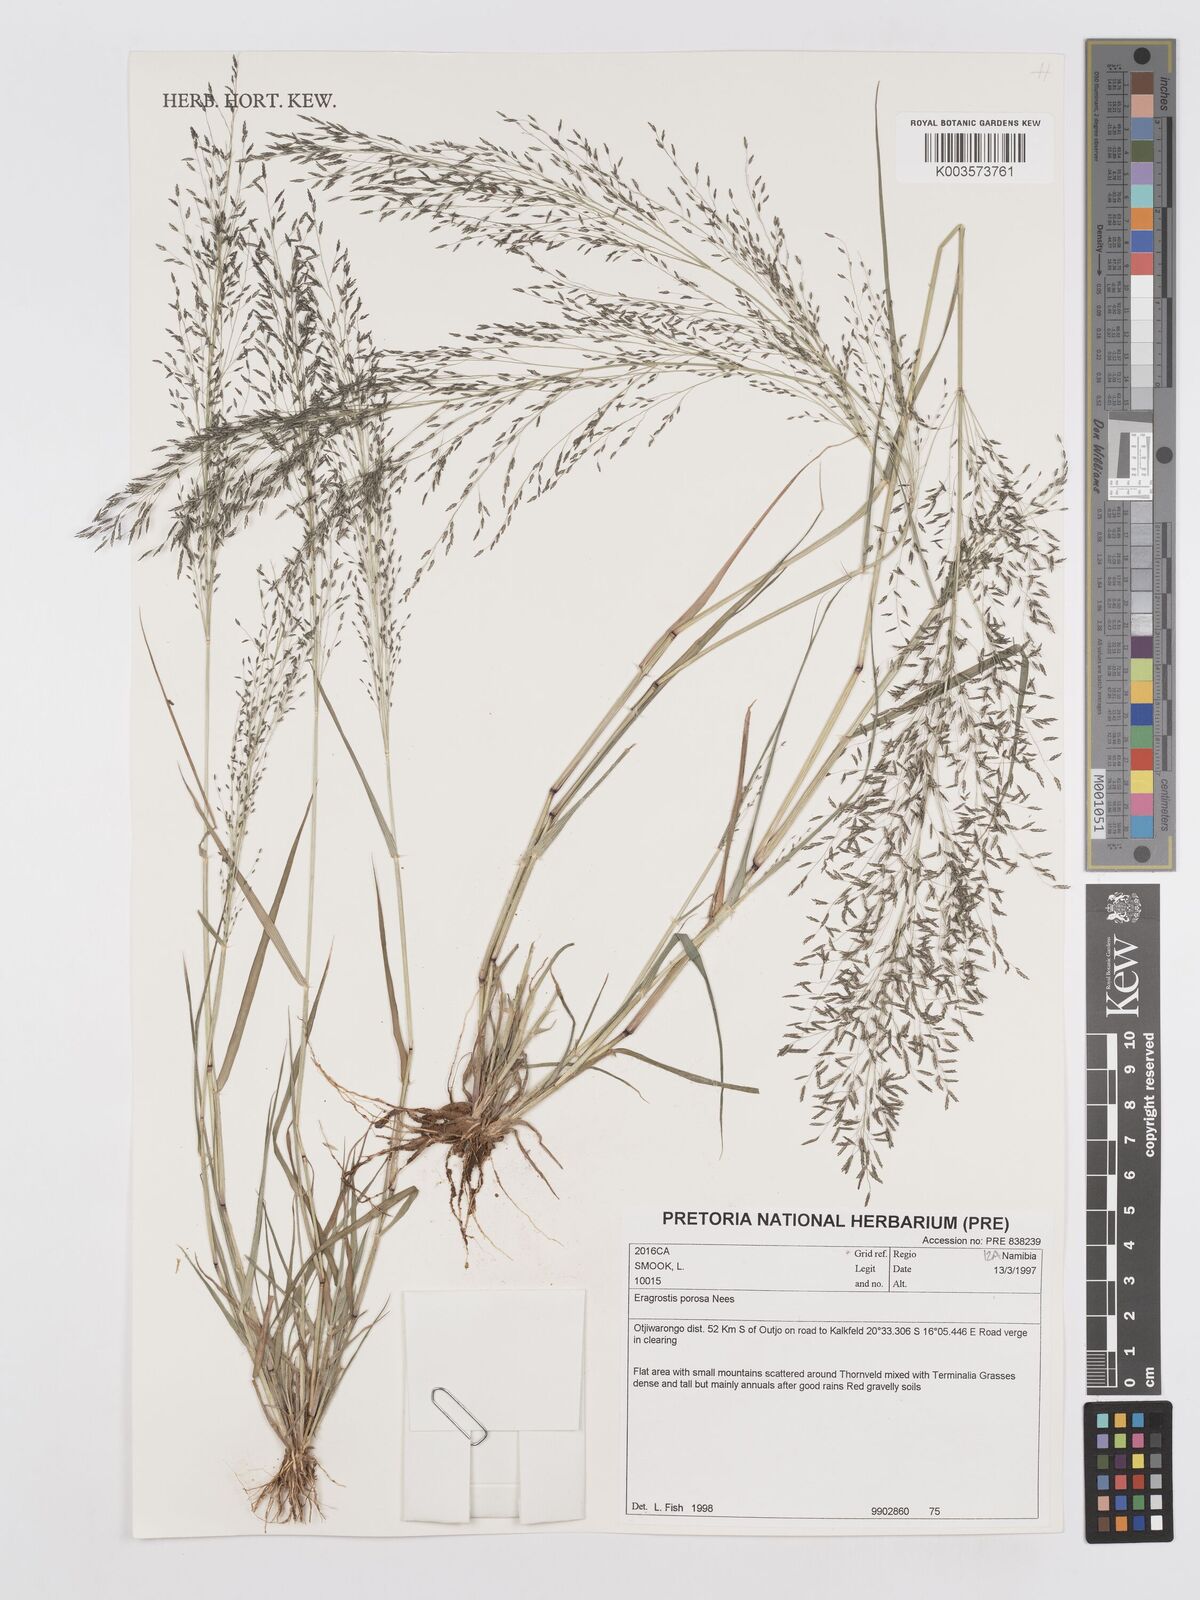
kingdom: Plantae
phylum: Tracheophyta
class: Liliopsida
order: Poales
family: Poaceae
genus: Eragrostis
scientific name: Eragrostis porosa
